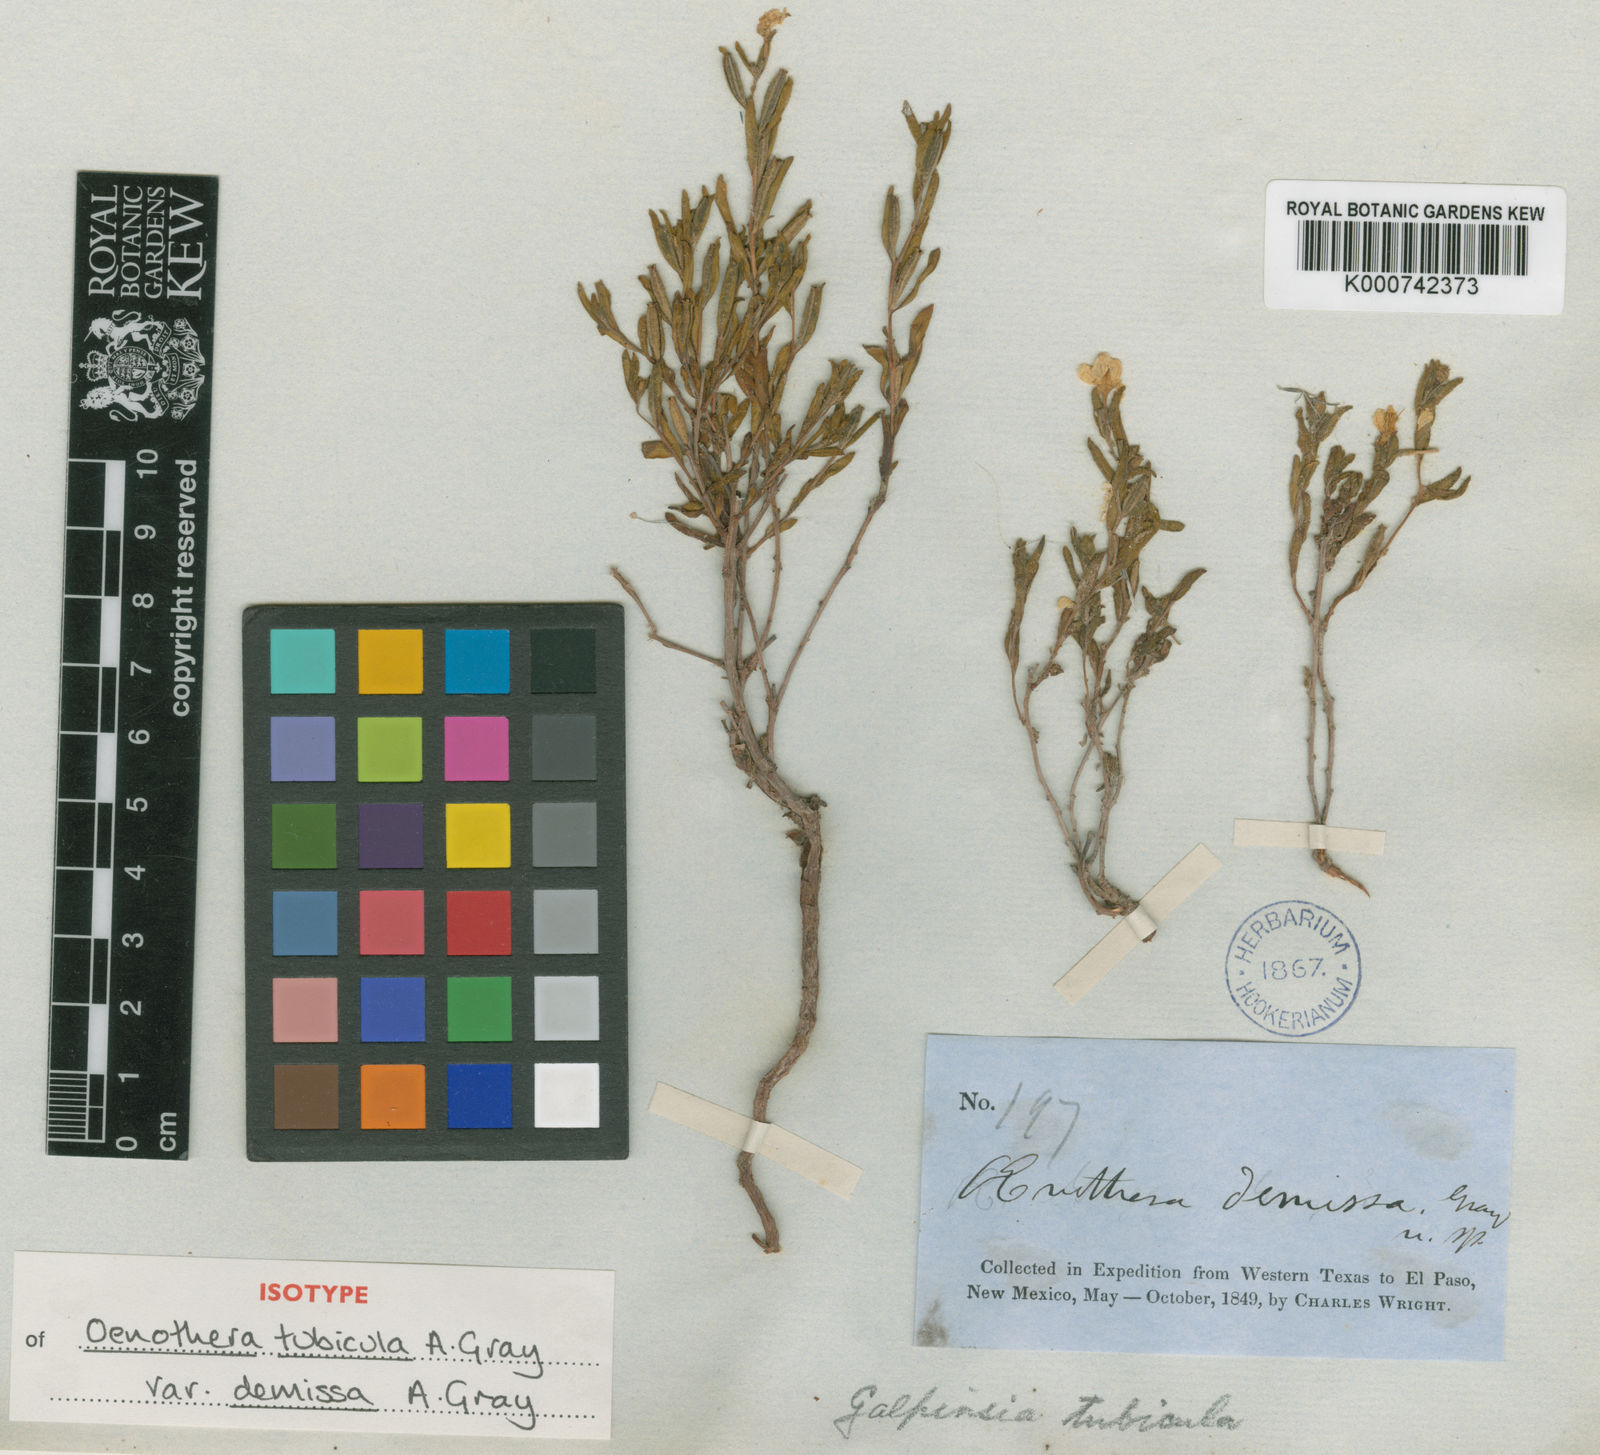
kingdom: Plantae
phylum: Tracheophyta
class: Magnoliopsida
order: Myrtales
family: Onagraceae
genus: Oenothera
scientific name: Oenothera tubicula
